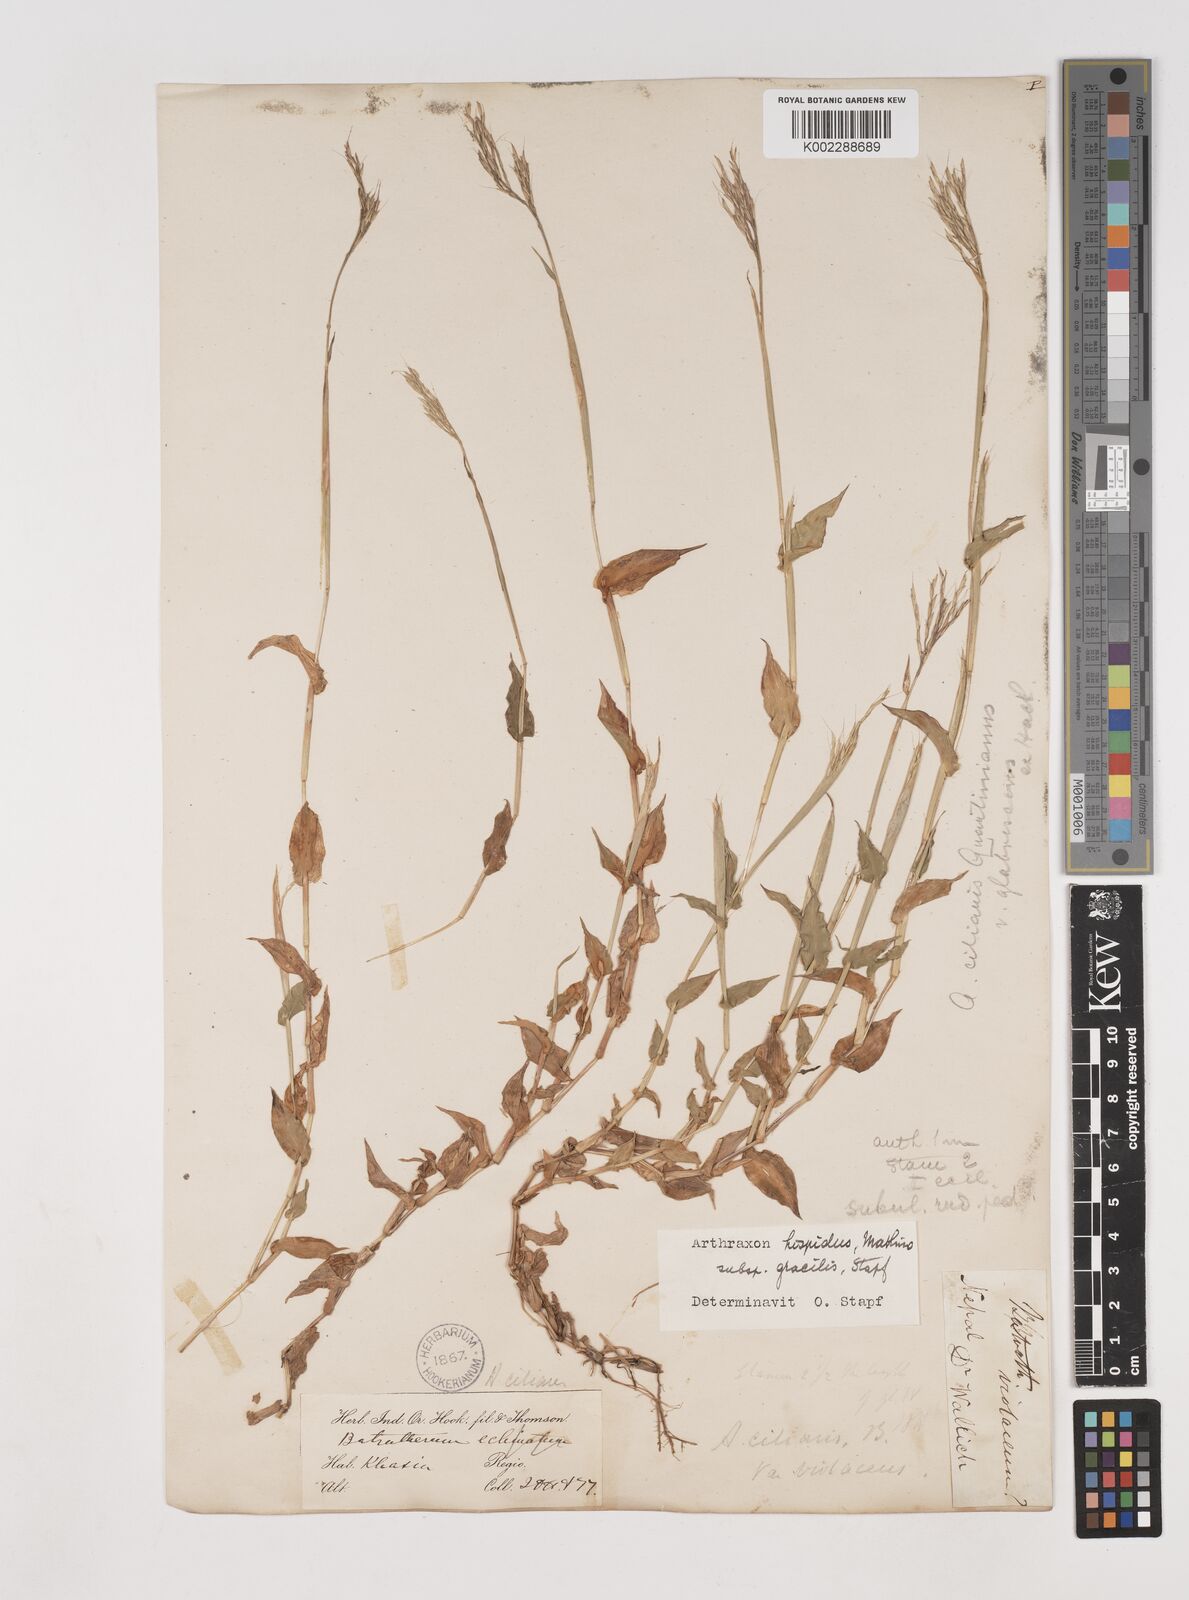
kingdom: Plantae
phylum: Tracheophyta
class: Liliopsida
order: Poales
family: Poaceae
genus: Arthraxon
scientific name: Arthraxon hispidus
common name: Small carpgrass
